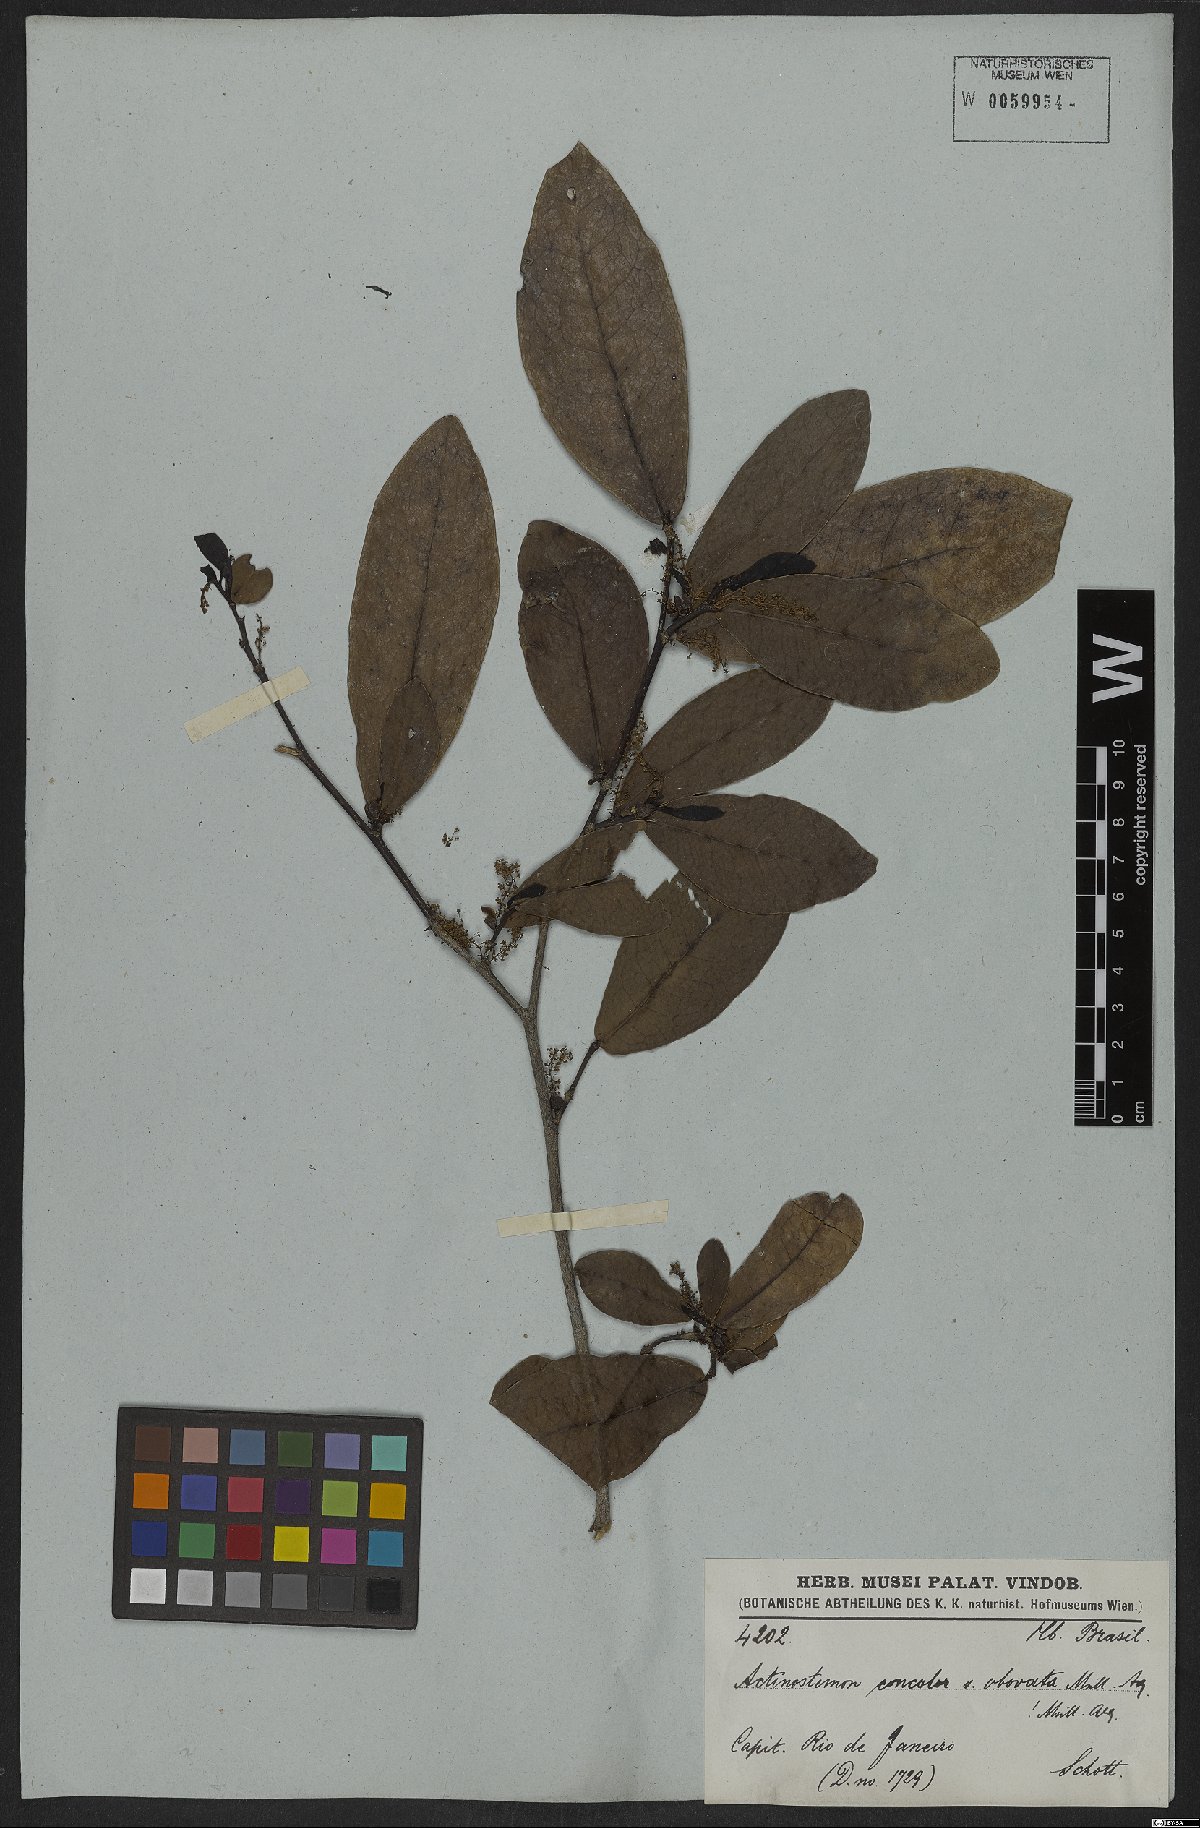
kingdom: Plantae
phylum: Tracheophyta
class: Magnoliopsida
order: Malpighiales
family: Euphorbiaceae
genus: Actinostemon
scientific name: Actinostemon concolor
